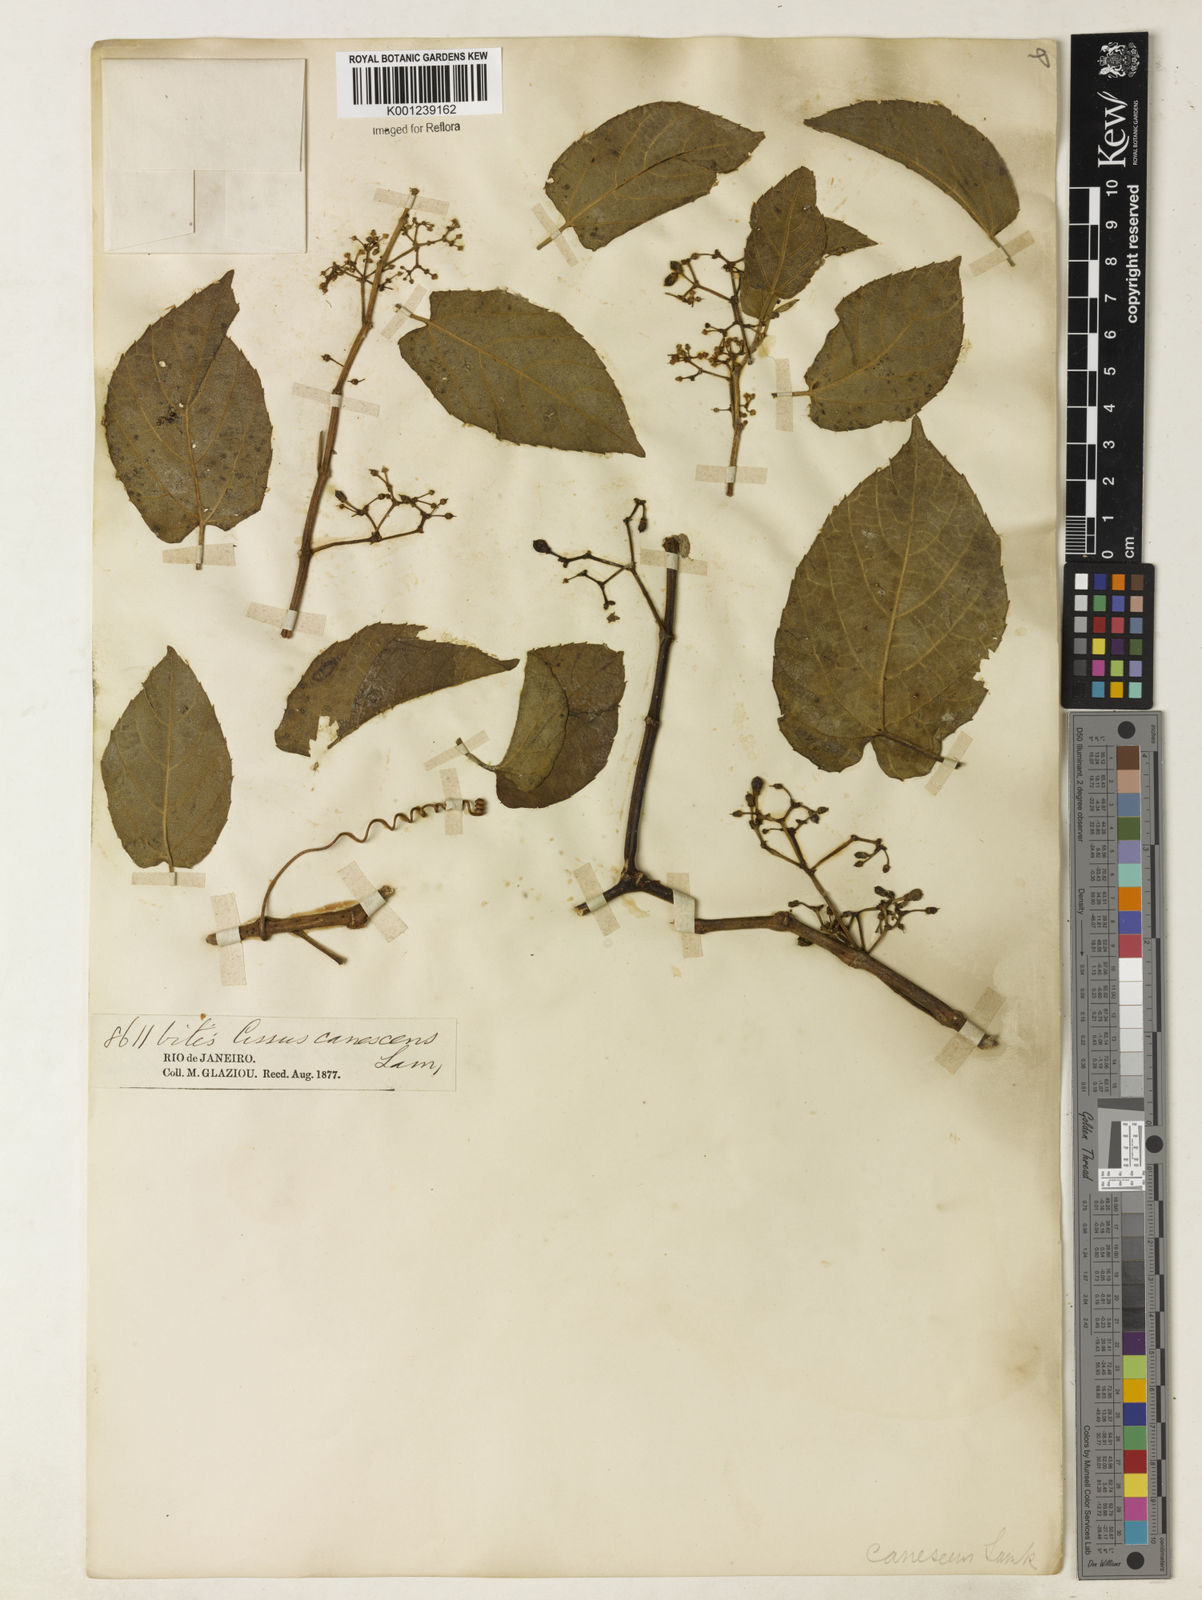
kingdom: Plantae
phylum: Tracheophyta
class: Magnoliopsida
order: Vitales
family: Vitaceae
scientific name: Vitaceae
